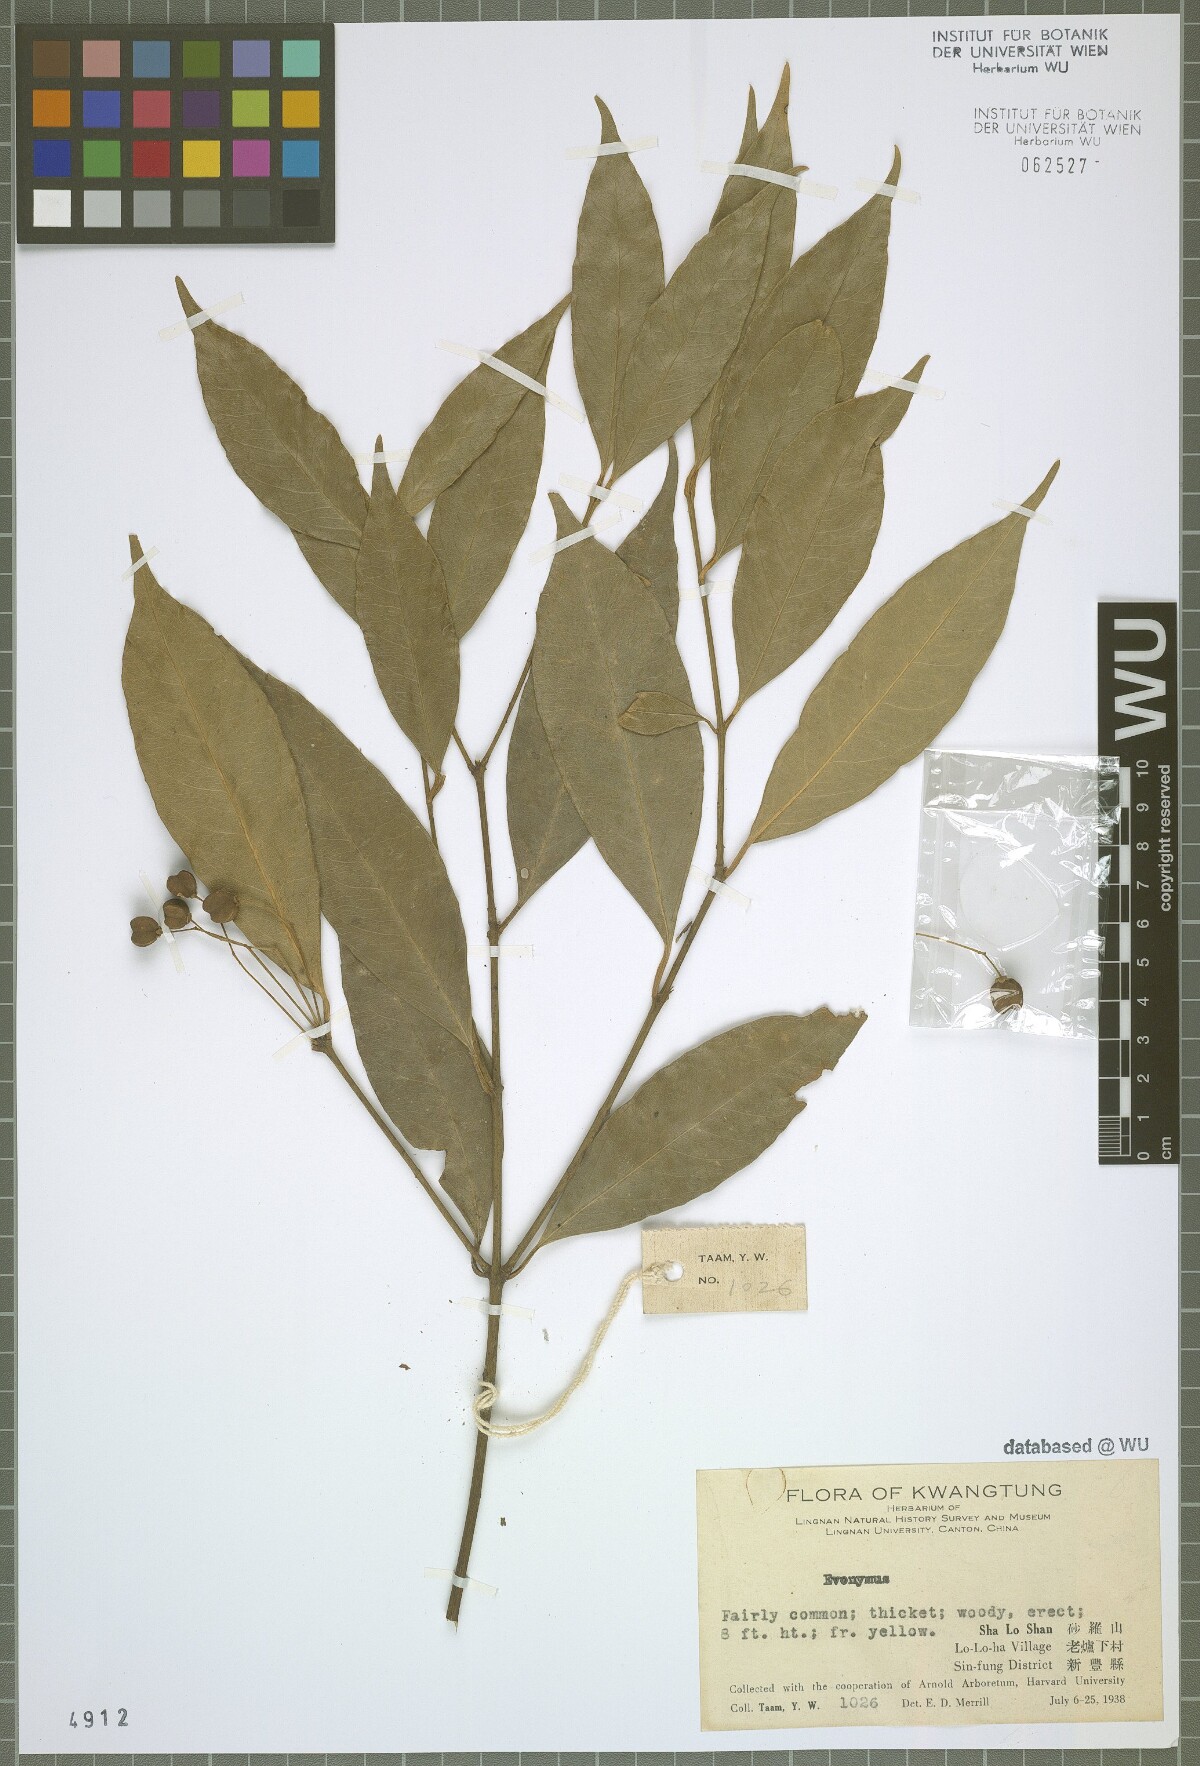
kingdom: Plantae
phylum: Tracheophyta
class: Magnoliopsida
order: Celastrales
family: Celastraceae
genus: Euonymus
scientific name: Euonymus
